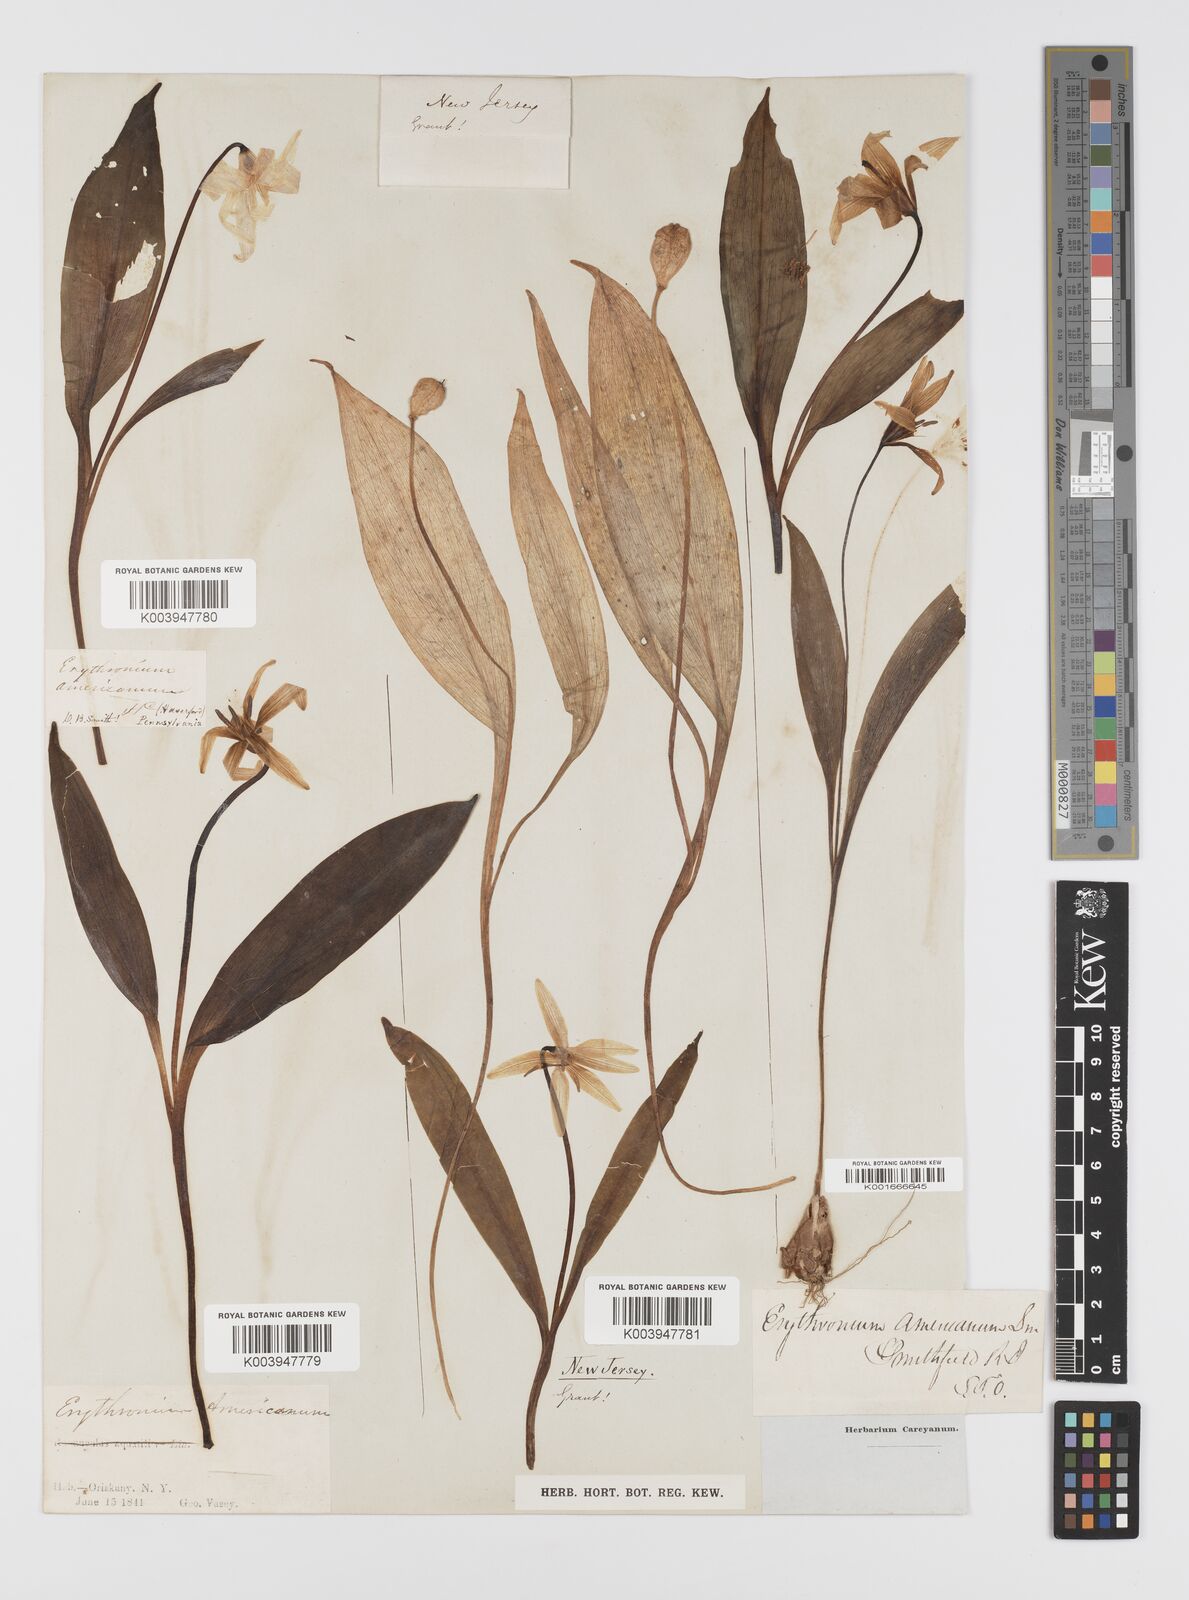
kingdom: Plantae
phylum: Tracheophyta
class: Liliopsida
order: Liliales
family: Liliaceae
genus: Erythronium
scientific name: Erythronium americanum
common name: Yellow adder's-tongue
